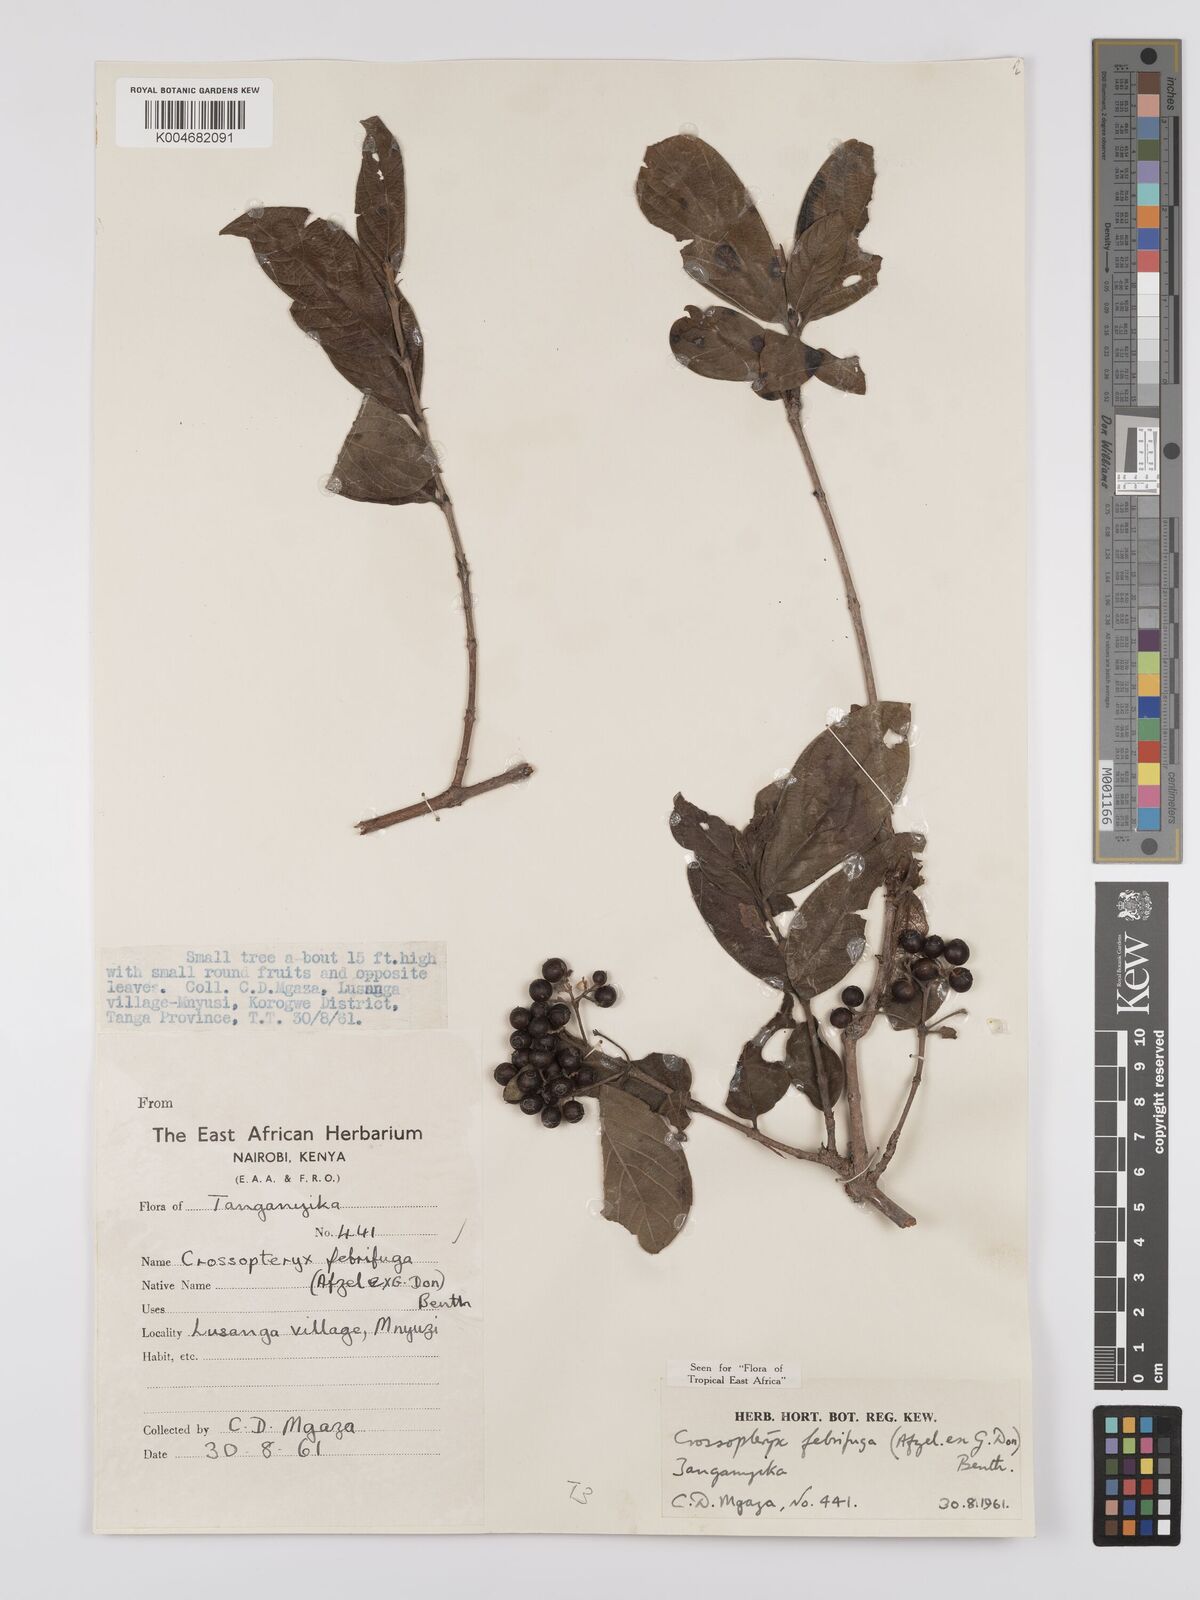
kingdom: Plantae
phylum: Tracheophyta
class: Magnoliopsida
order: Gentianales
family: Rubiaceae
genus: Crossopteryx
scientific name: Crossopteryx
